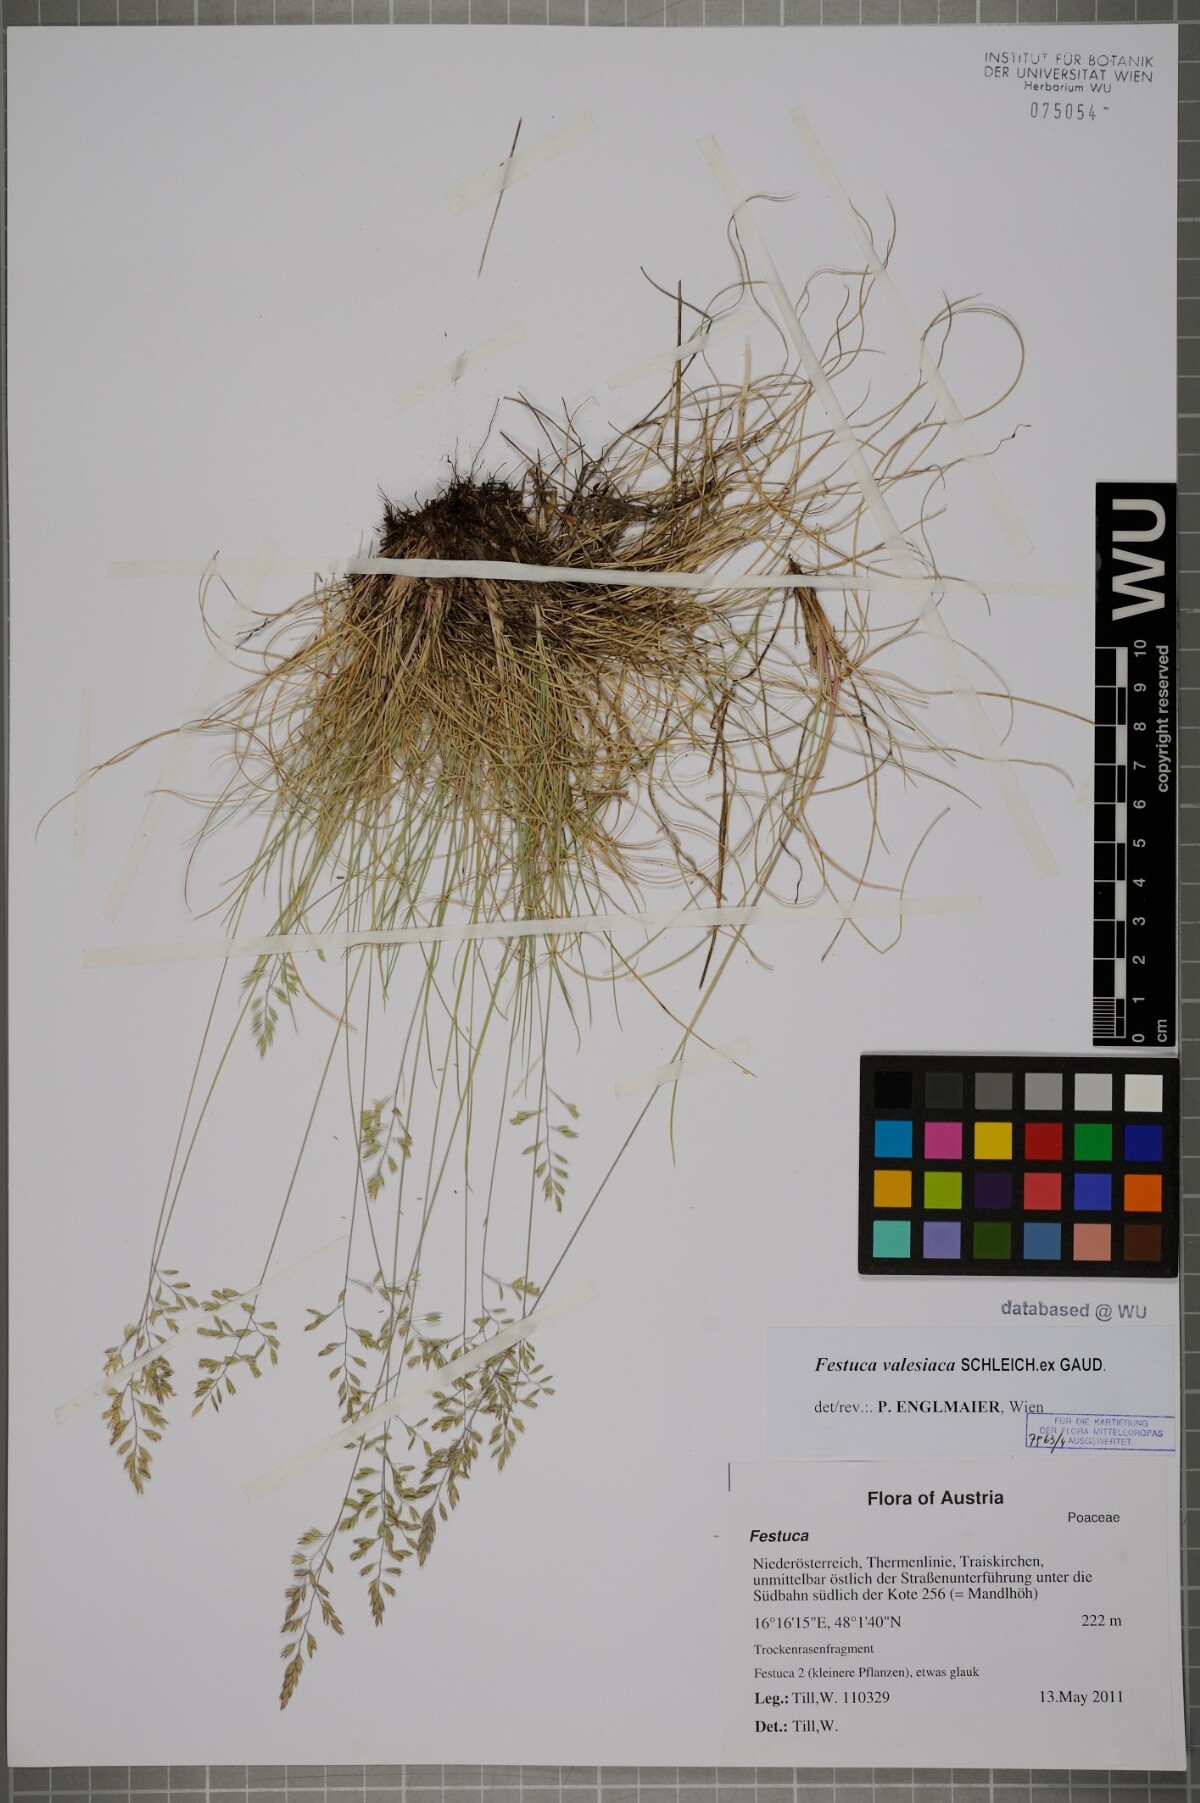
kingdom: Plantae
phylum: Tracheophyta
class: Liliopsida
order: Poales
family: Poaceae
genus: Festuca
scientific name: Festuca valesiaca
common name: Volga fescue
